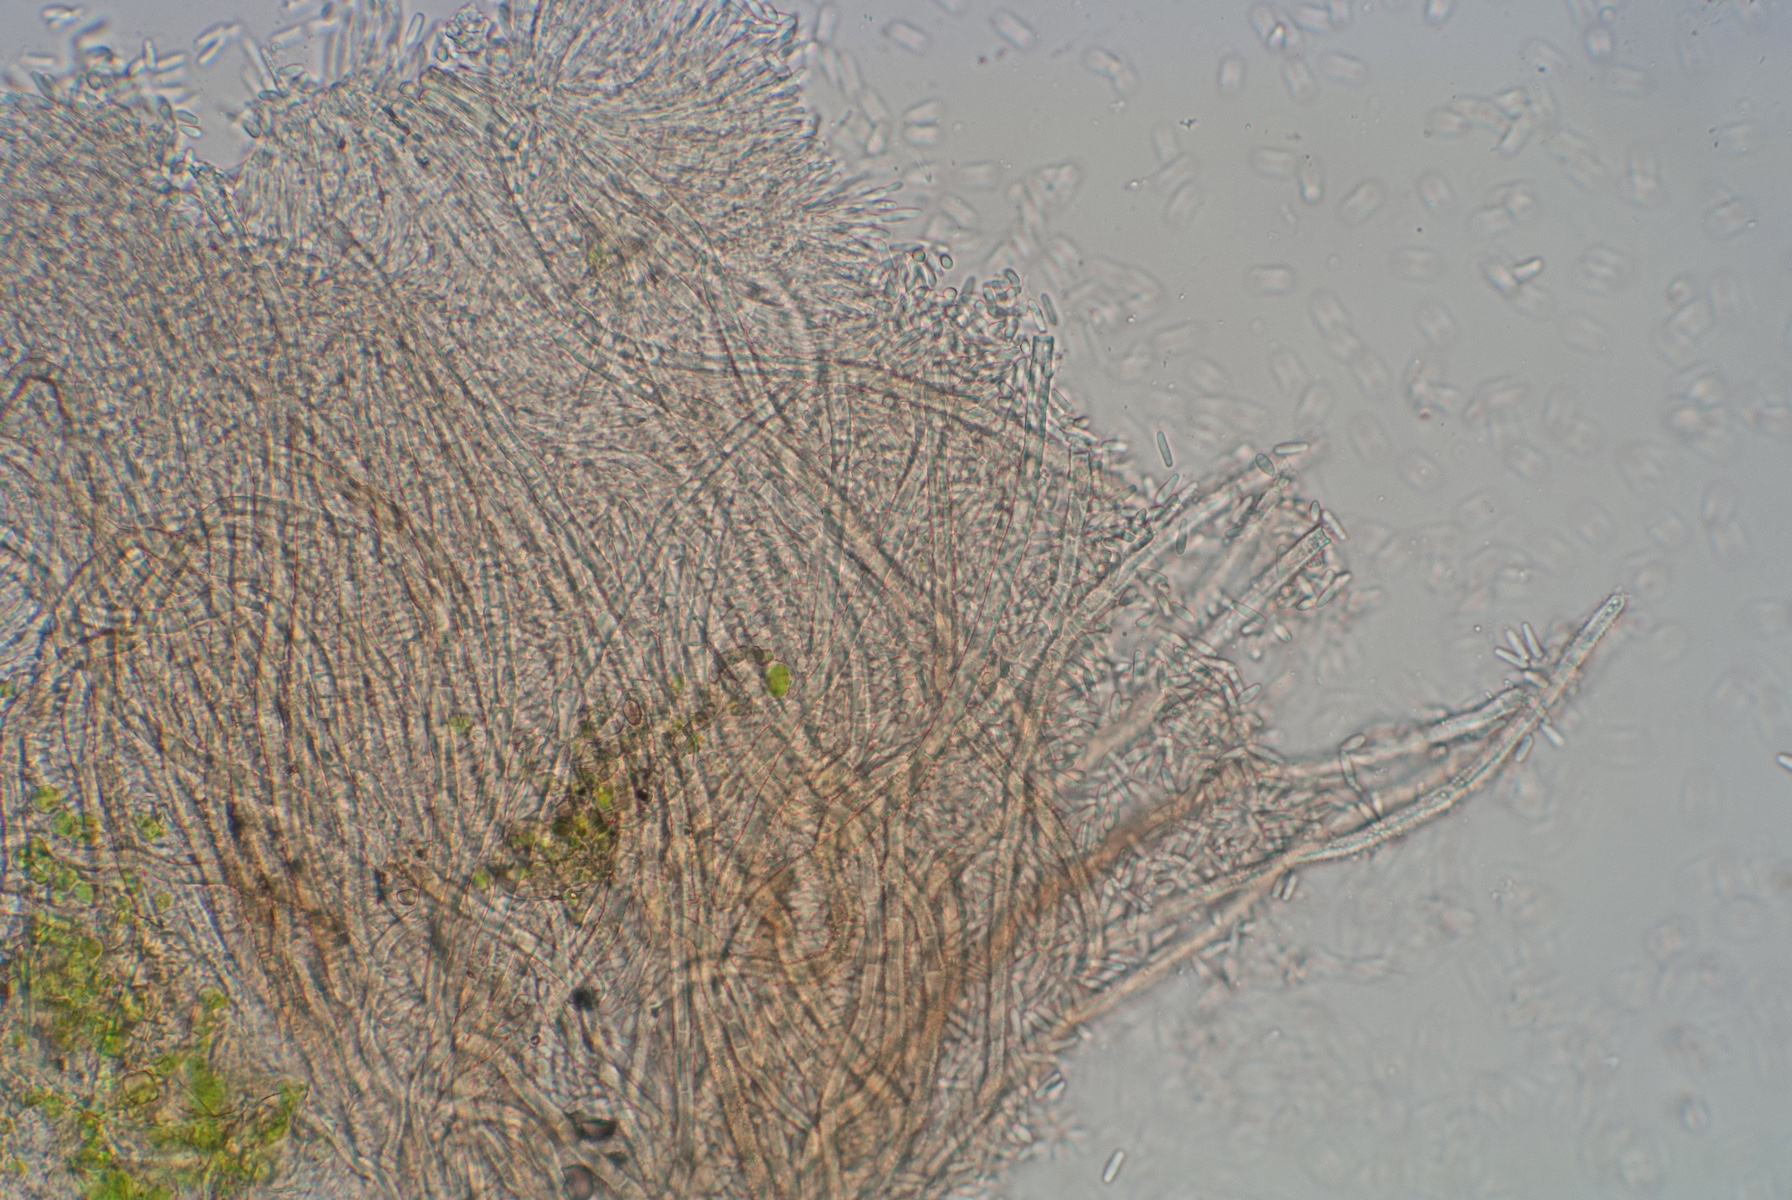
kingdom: Fungi
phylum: Ascomycota
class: Sordariomycetes
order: Hypocreales
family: Nectriaceae
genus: Sarcopodium
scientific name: Sarcopodium circinatum
